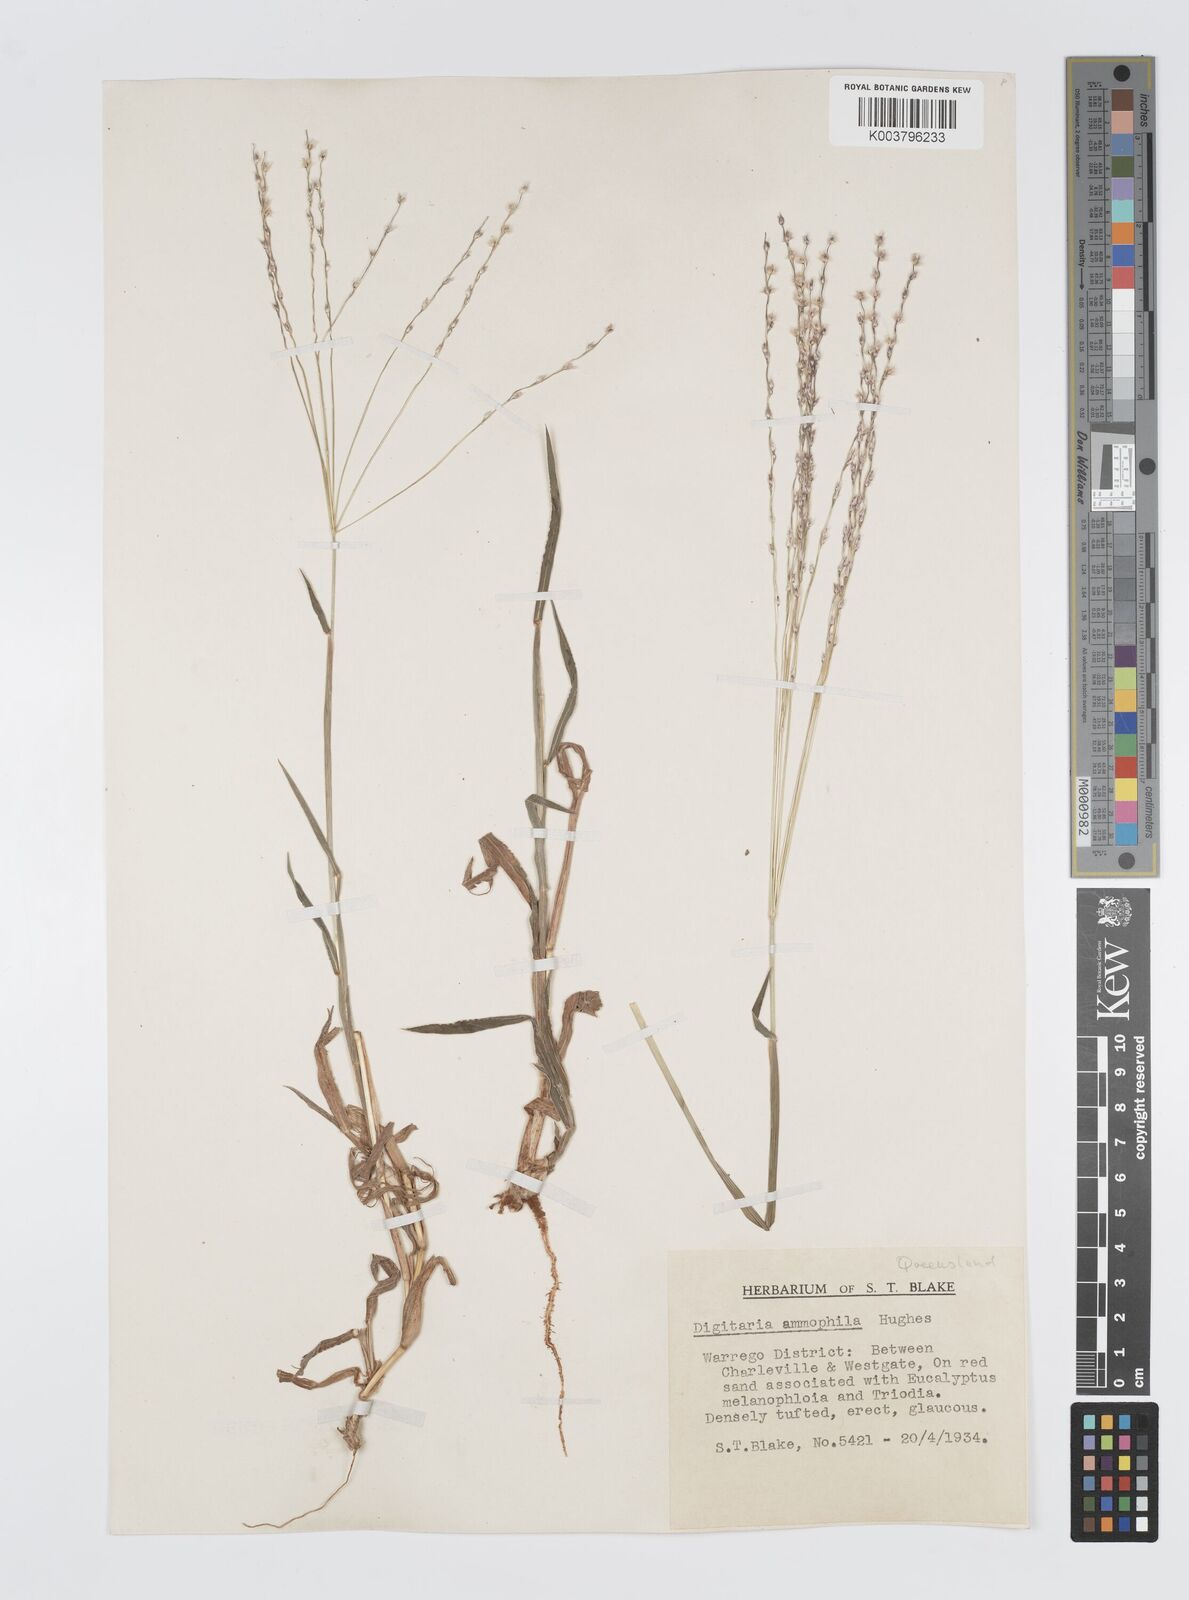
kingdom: Plantae
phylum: Tracheophyta
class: Liliopsida
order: Poales
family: Poaceae
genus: Digitaria
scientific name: Digitaria ammophila
